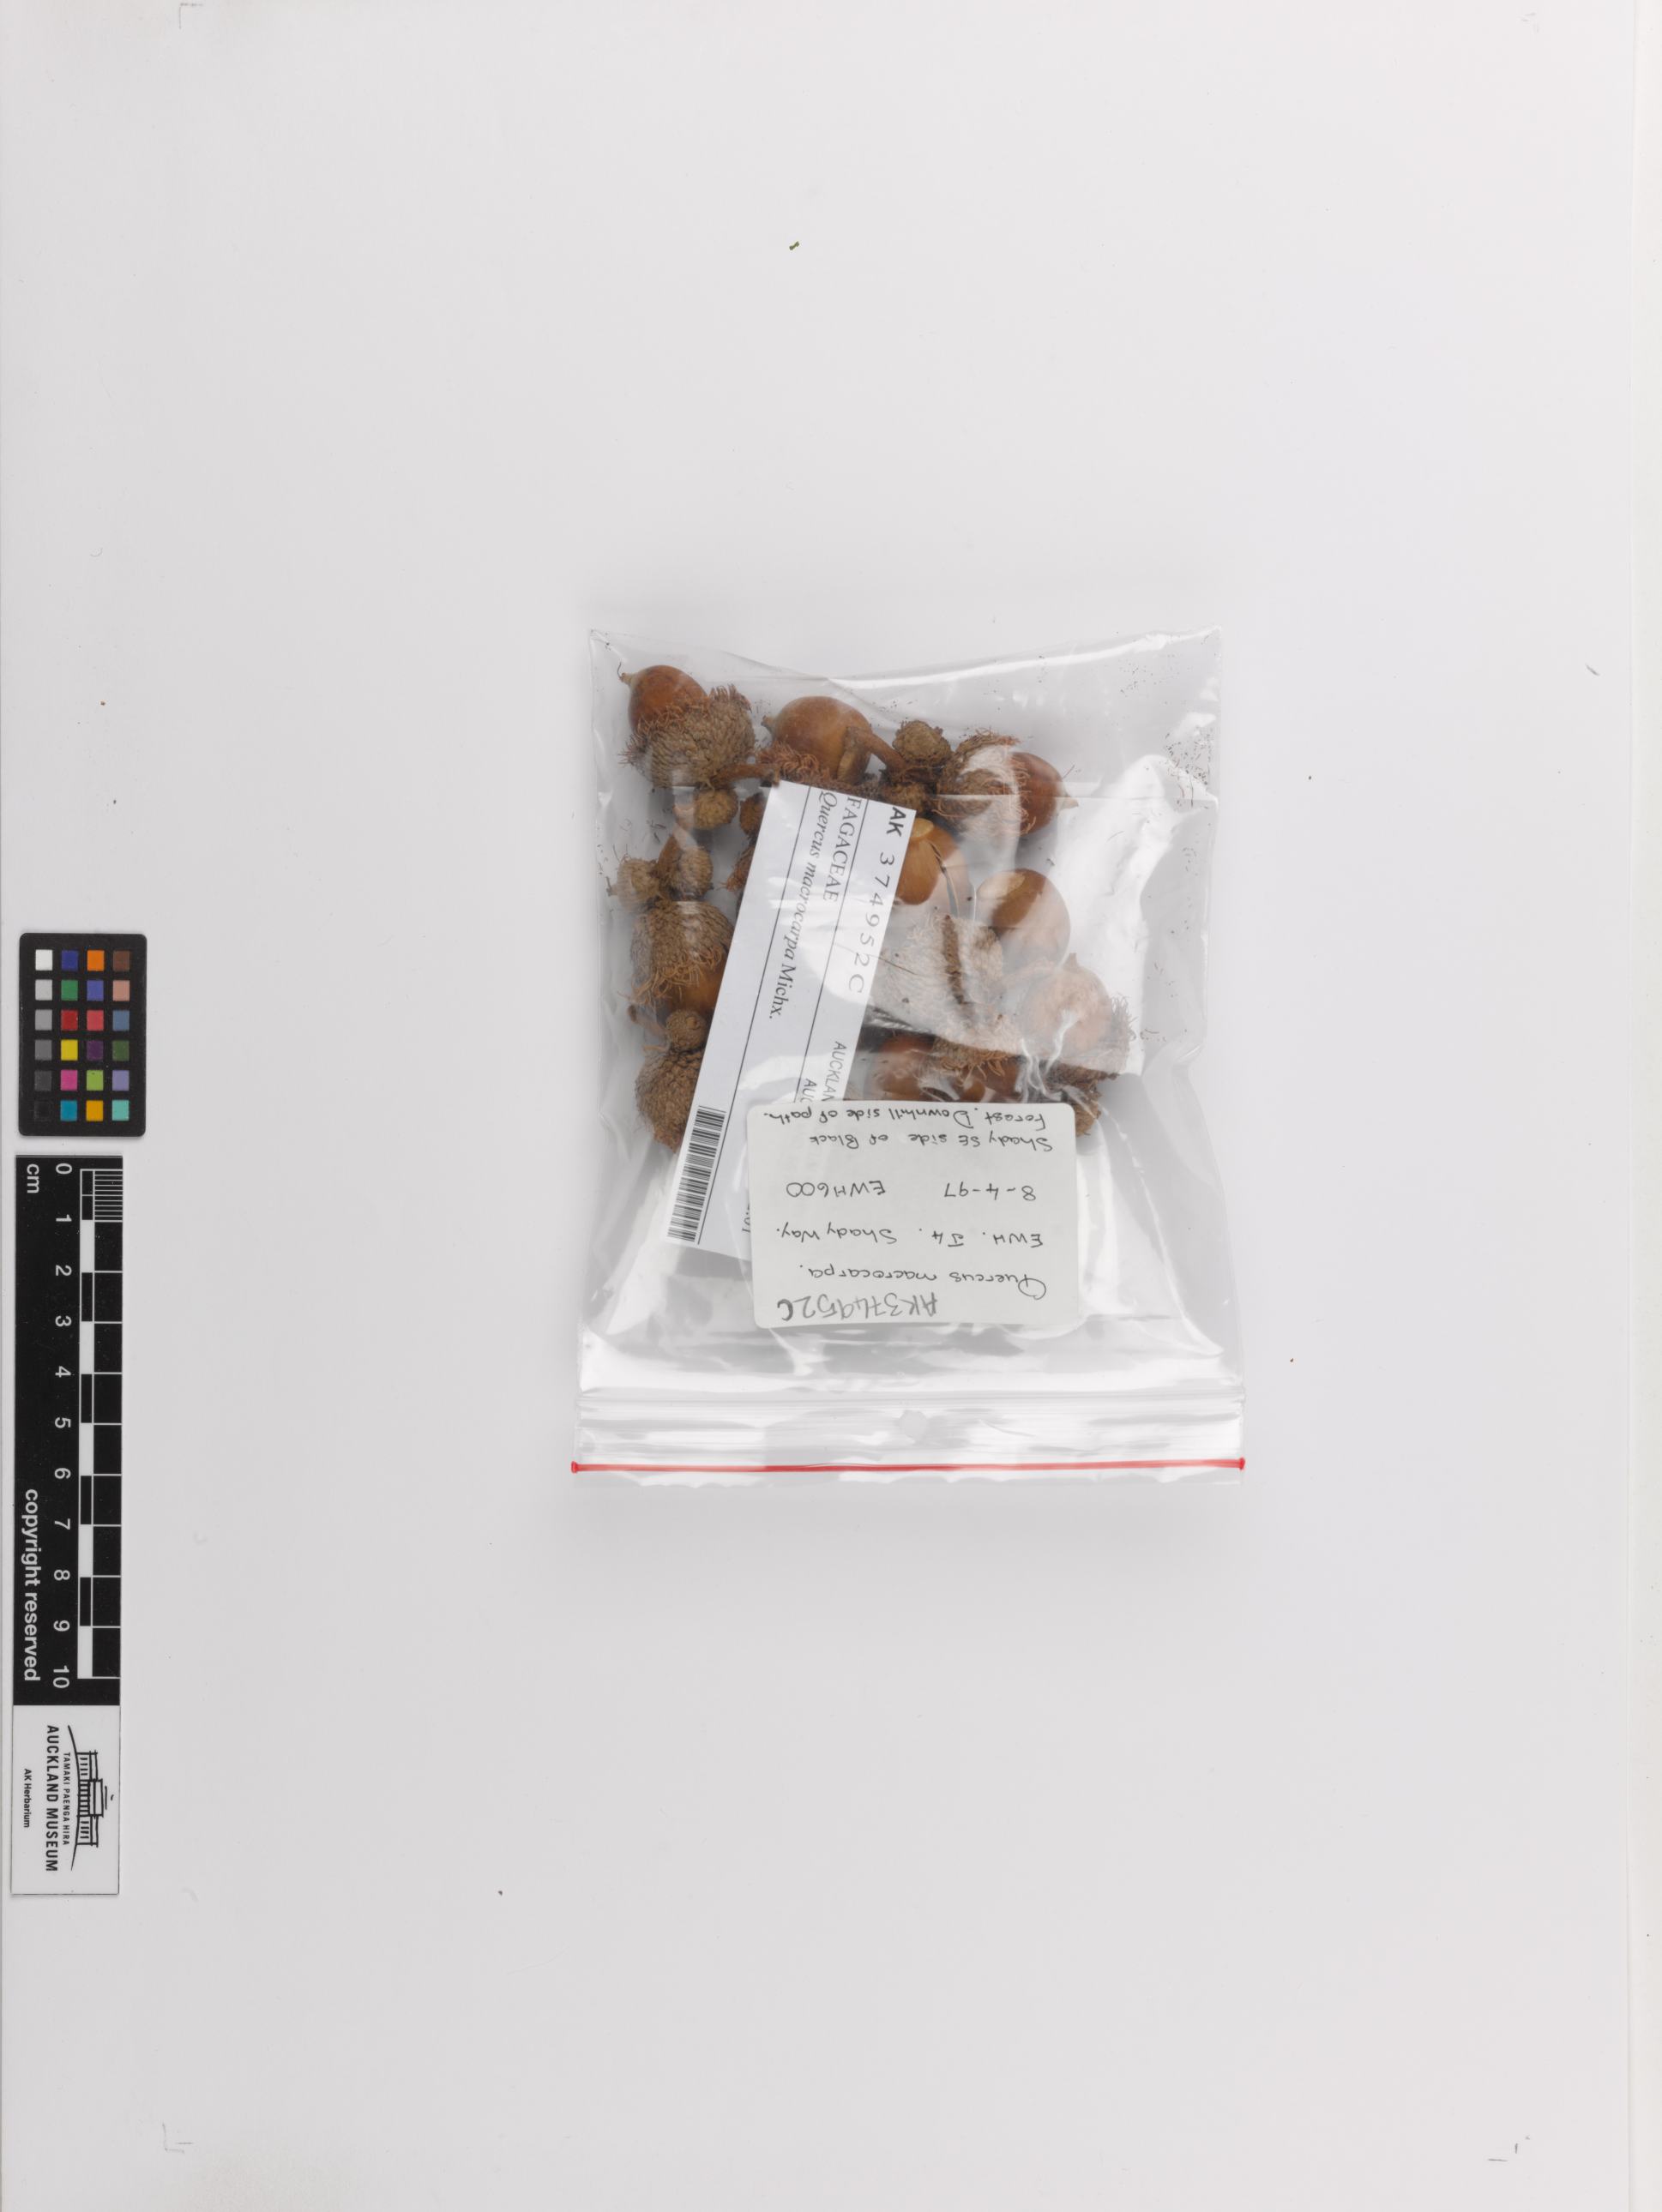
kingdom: Plantae
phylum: Tracheophyta
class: Magnoliopsida
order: Fagales
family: Fagaceae
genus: Quercus
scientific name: Quercus macrocarpa
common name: Bur oak
